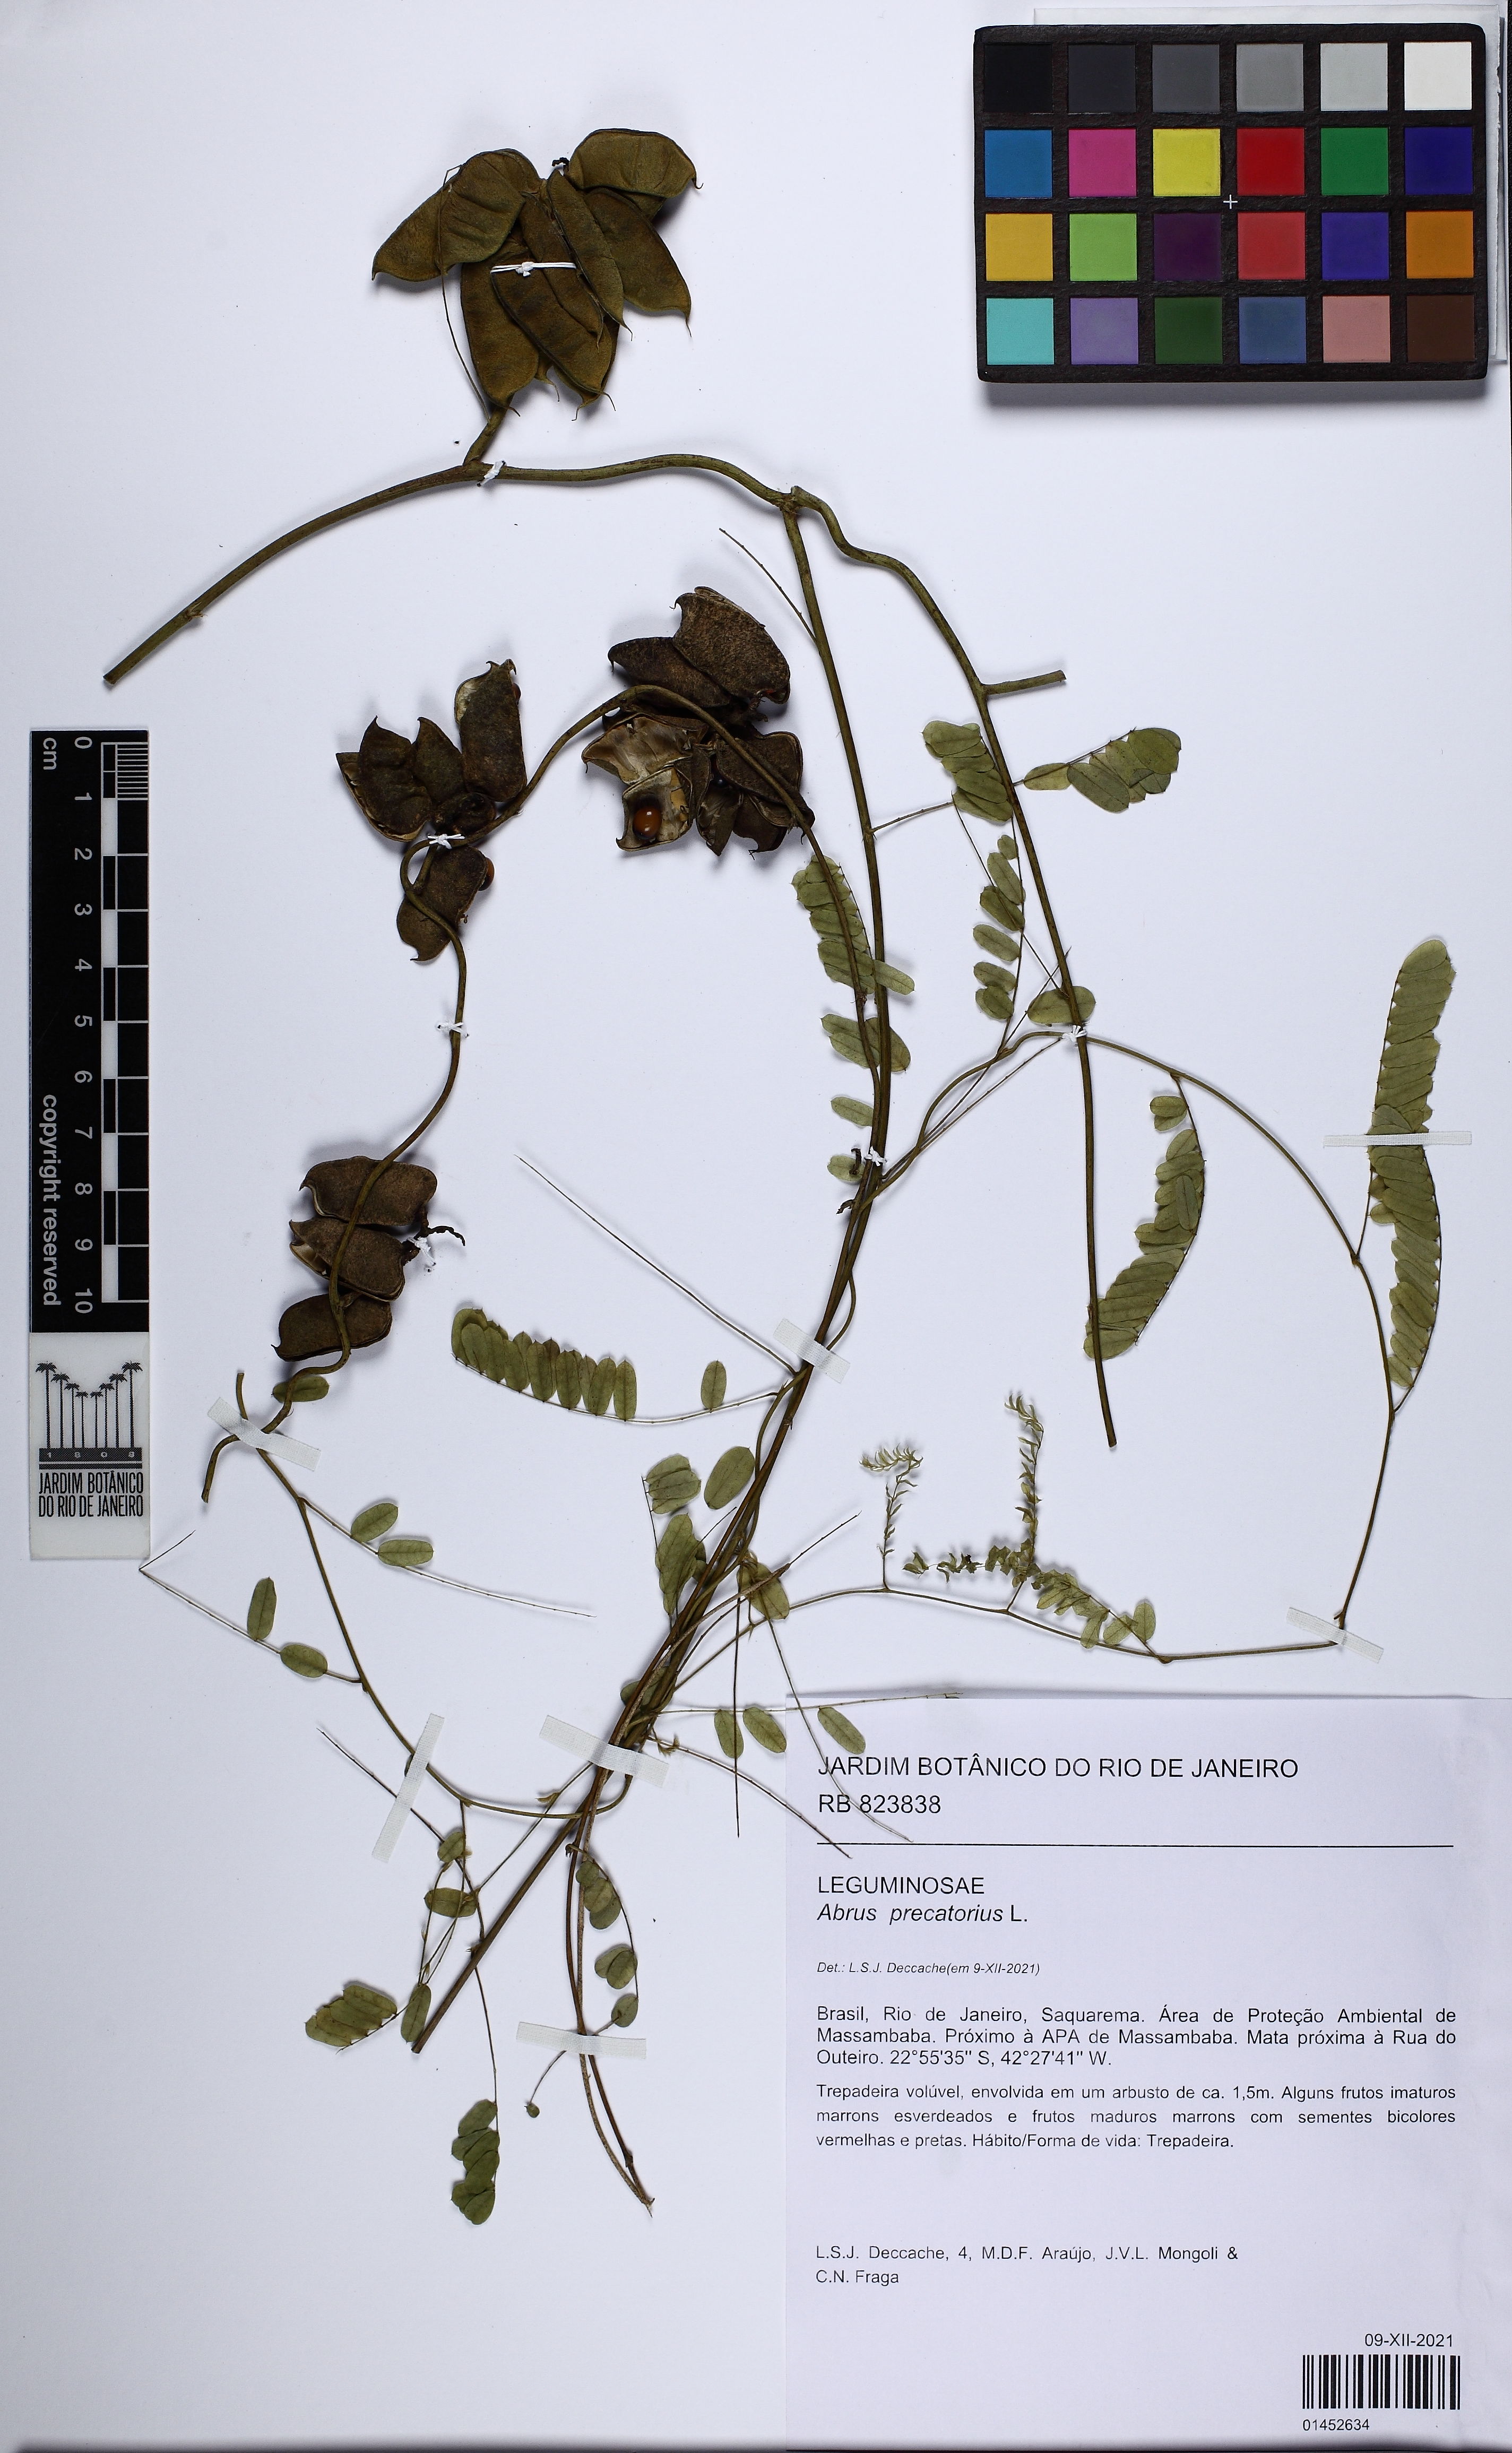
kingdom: Plantae
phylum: Tracheophyta
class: Magnoliopsida
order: Fabales
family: Fabaceae
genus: Abrus
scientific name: Abrus precatorius
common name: Rosarypea
